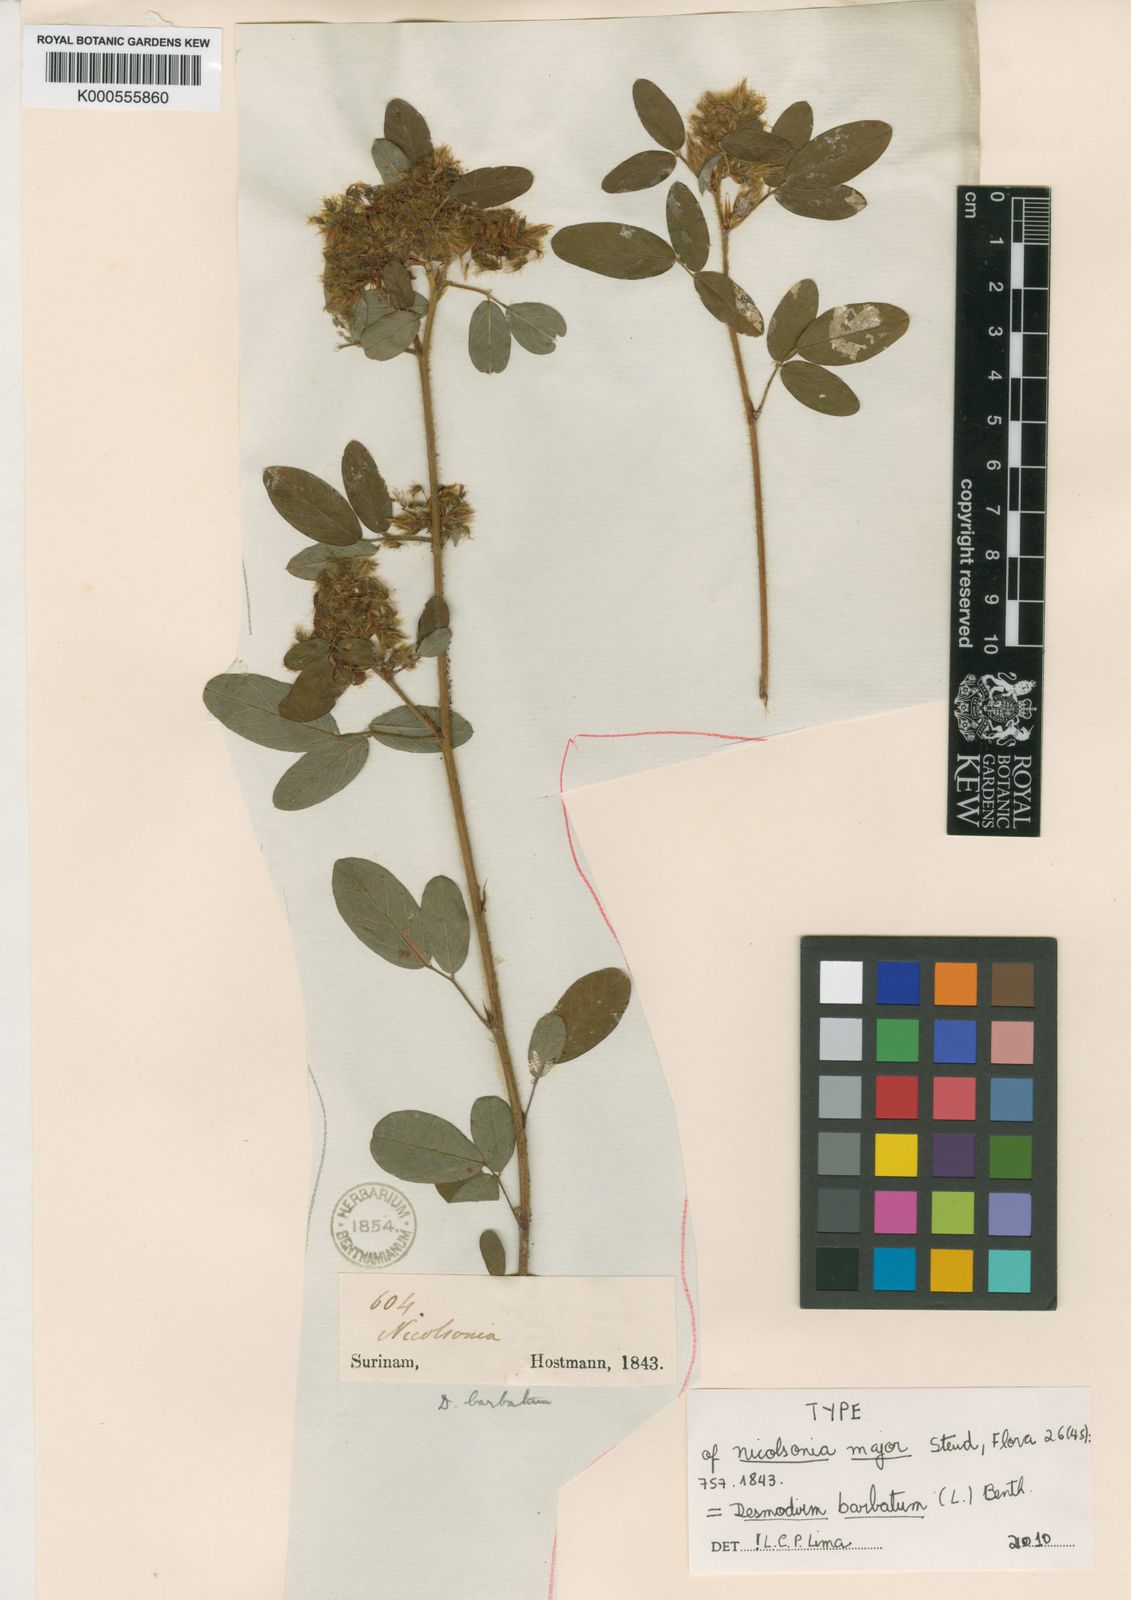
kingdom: Plantae
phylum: Tracheophyta
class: Magnoliopsida
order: Fabales
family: Fabaceae
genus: Grona
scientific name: Grona barbata
